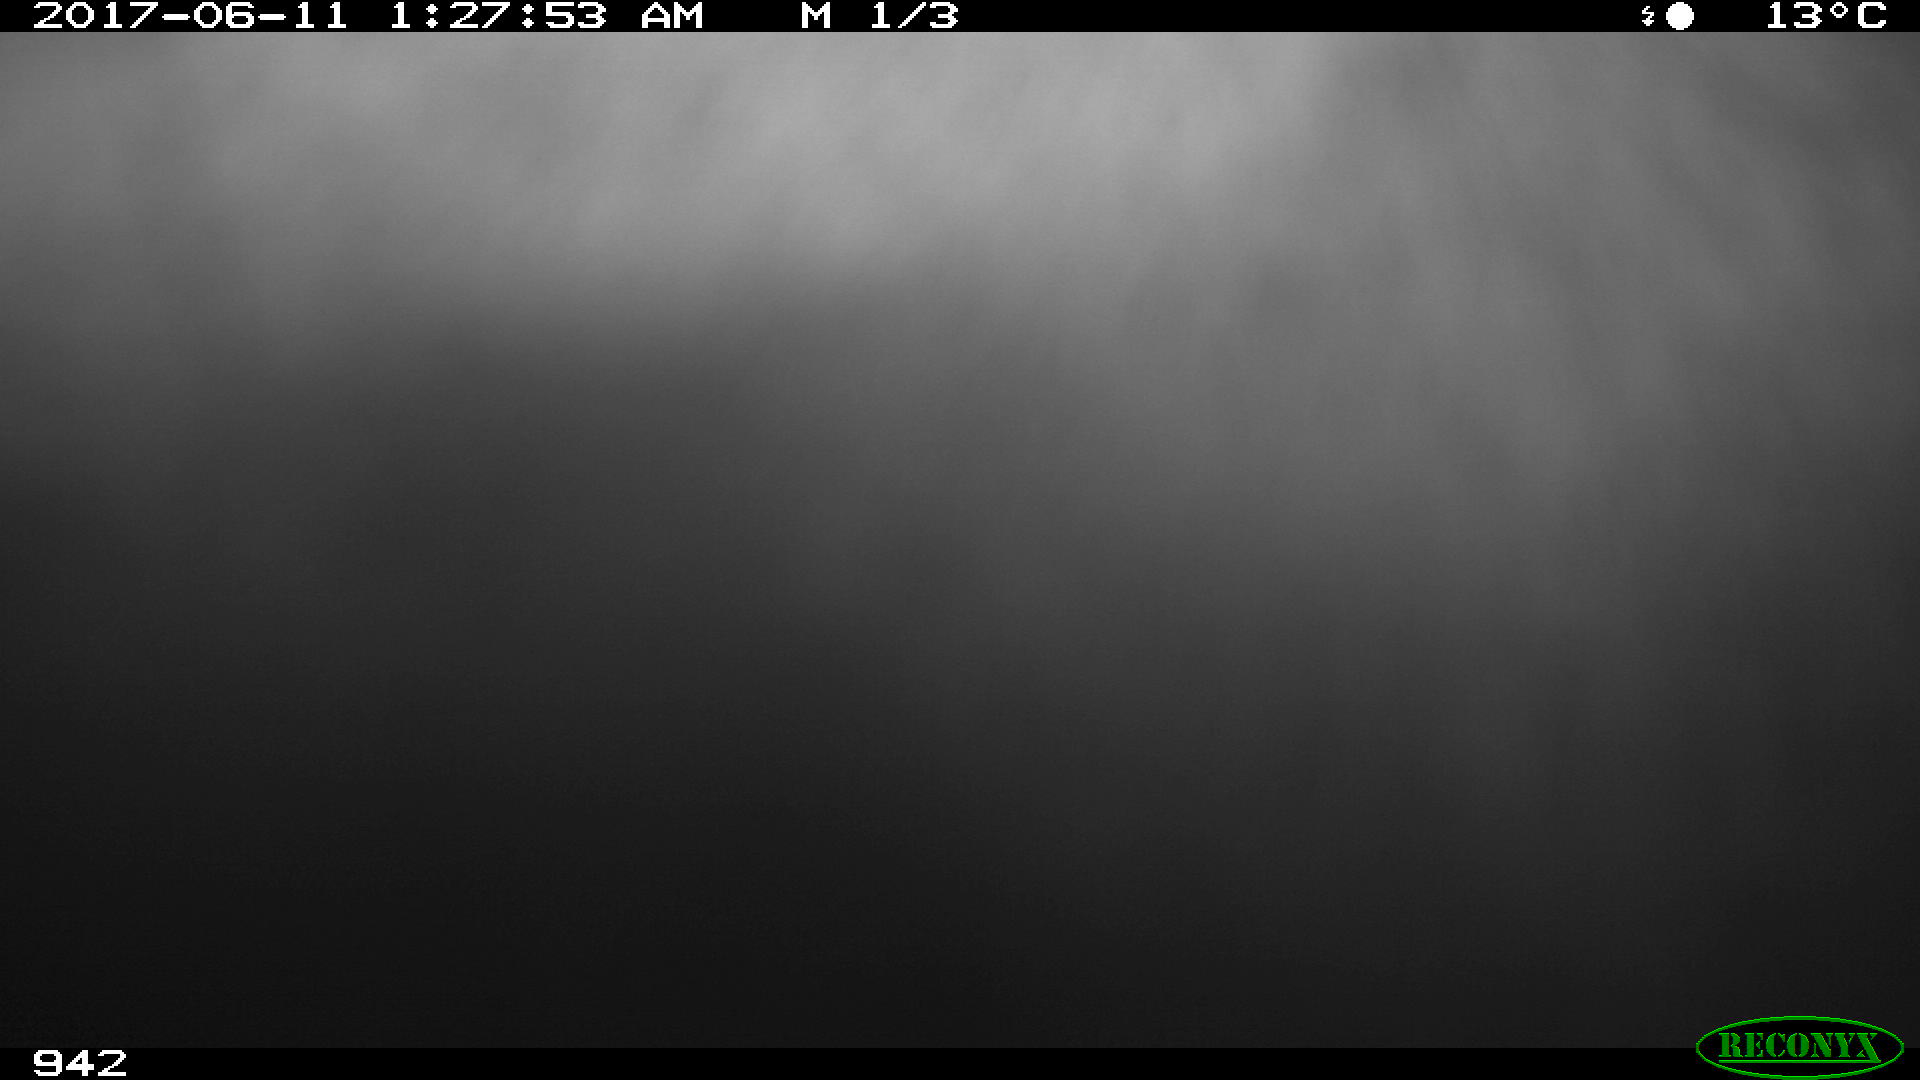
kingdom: Animalia
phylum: Chordata
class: Mammalia
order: Perissodactyla
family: Equidae
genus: Equus
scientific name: Equus caballus
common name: Horse
